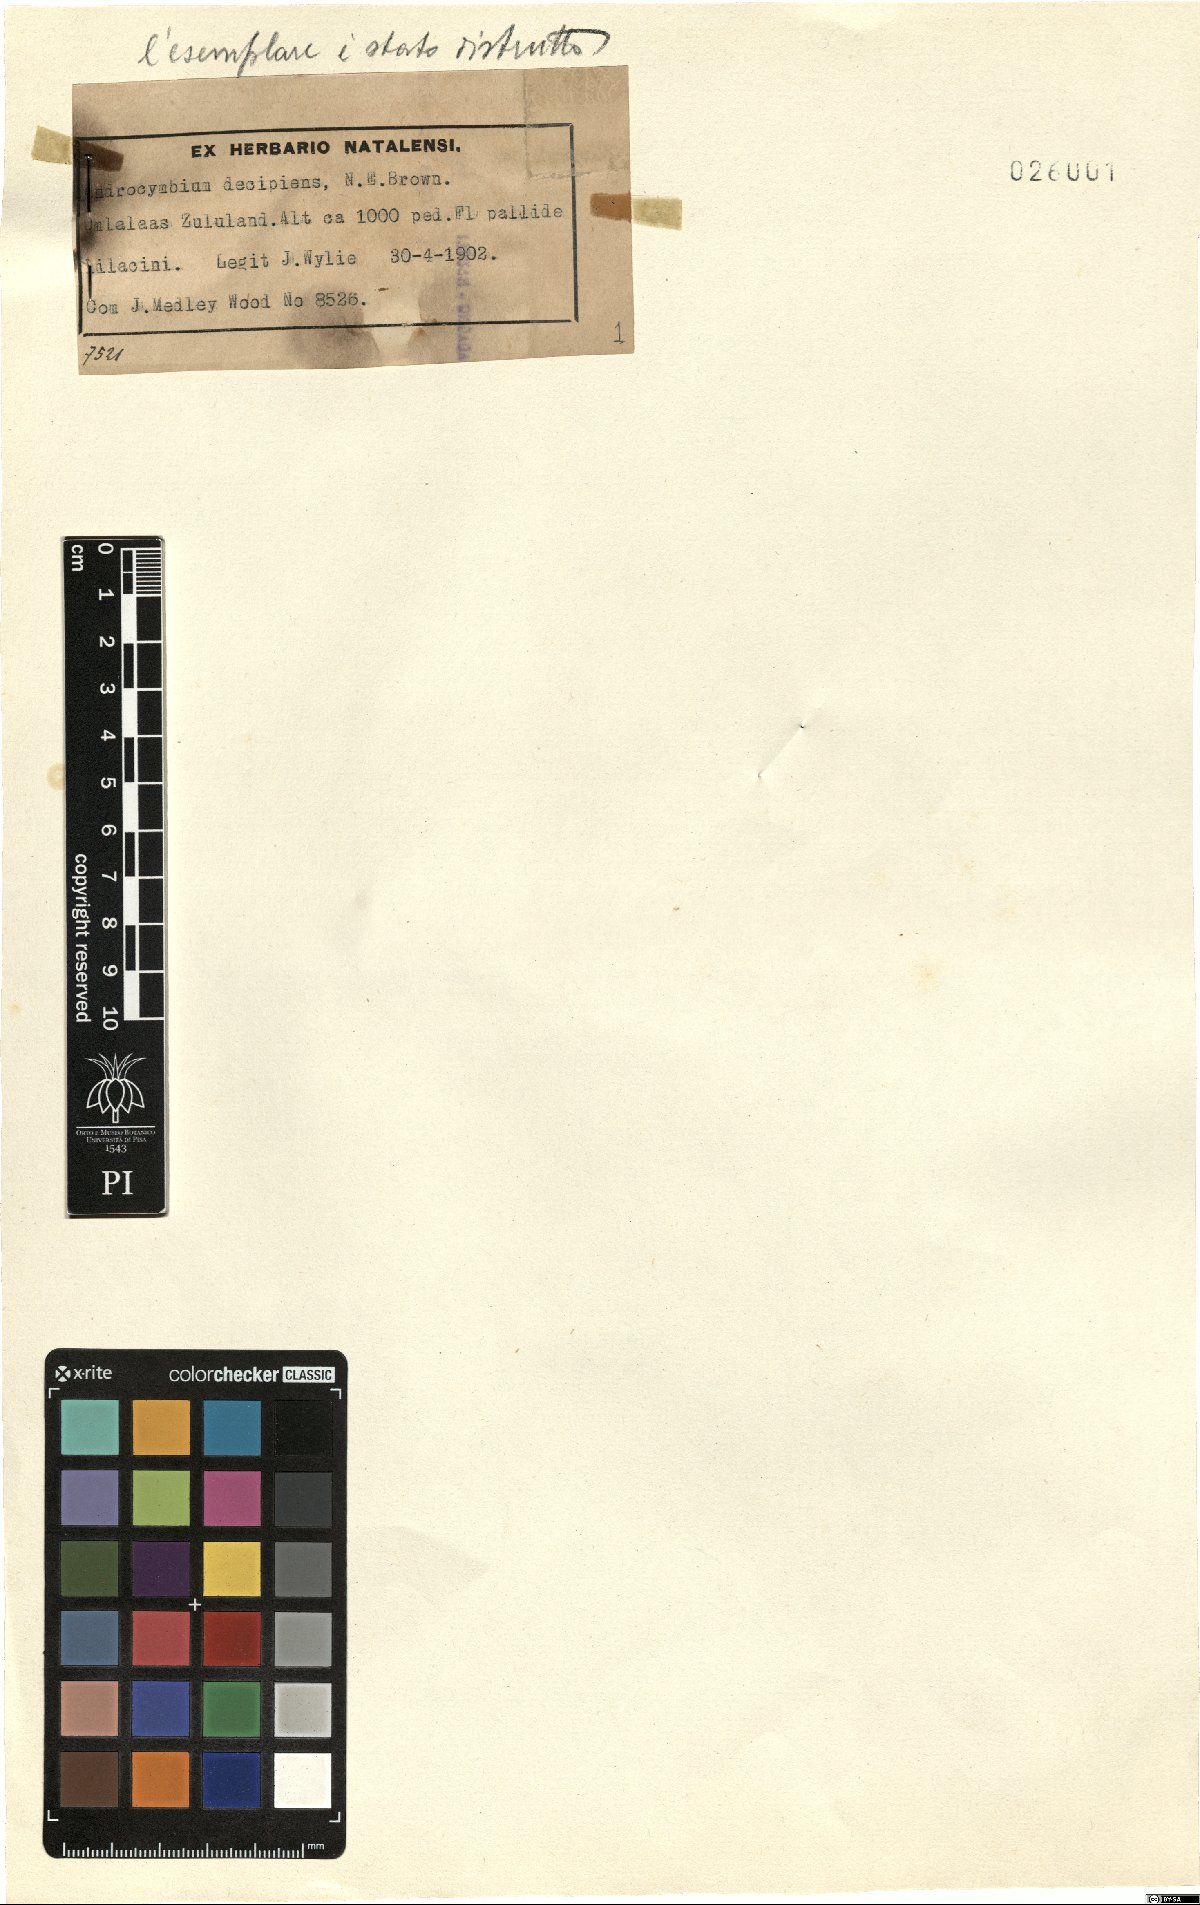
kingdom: Plantae
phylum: Tracheophyta
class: Liliopsida
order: Liliales
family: Colchicaceae
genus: Colchicum
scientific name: Colchicum natalense
